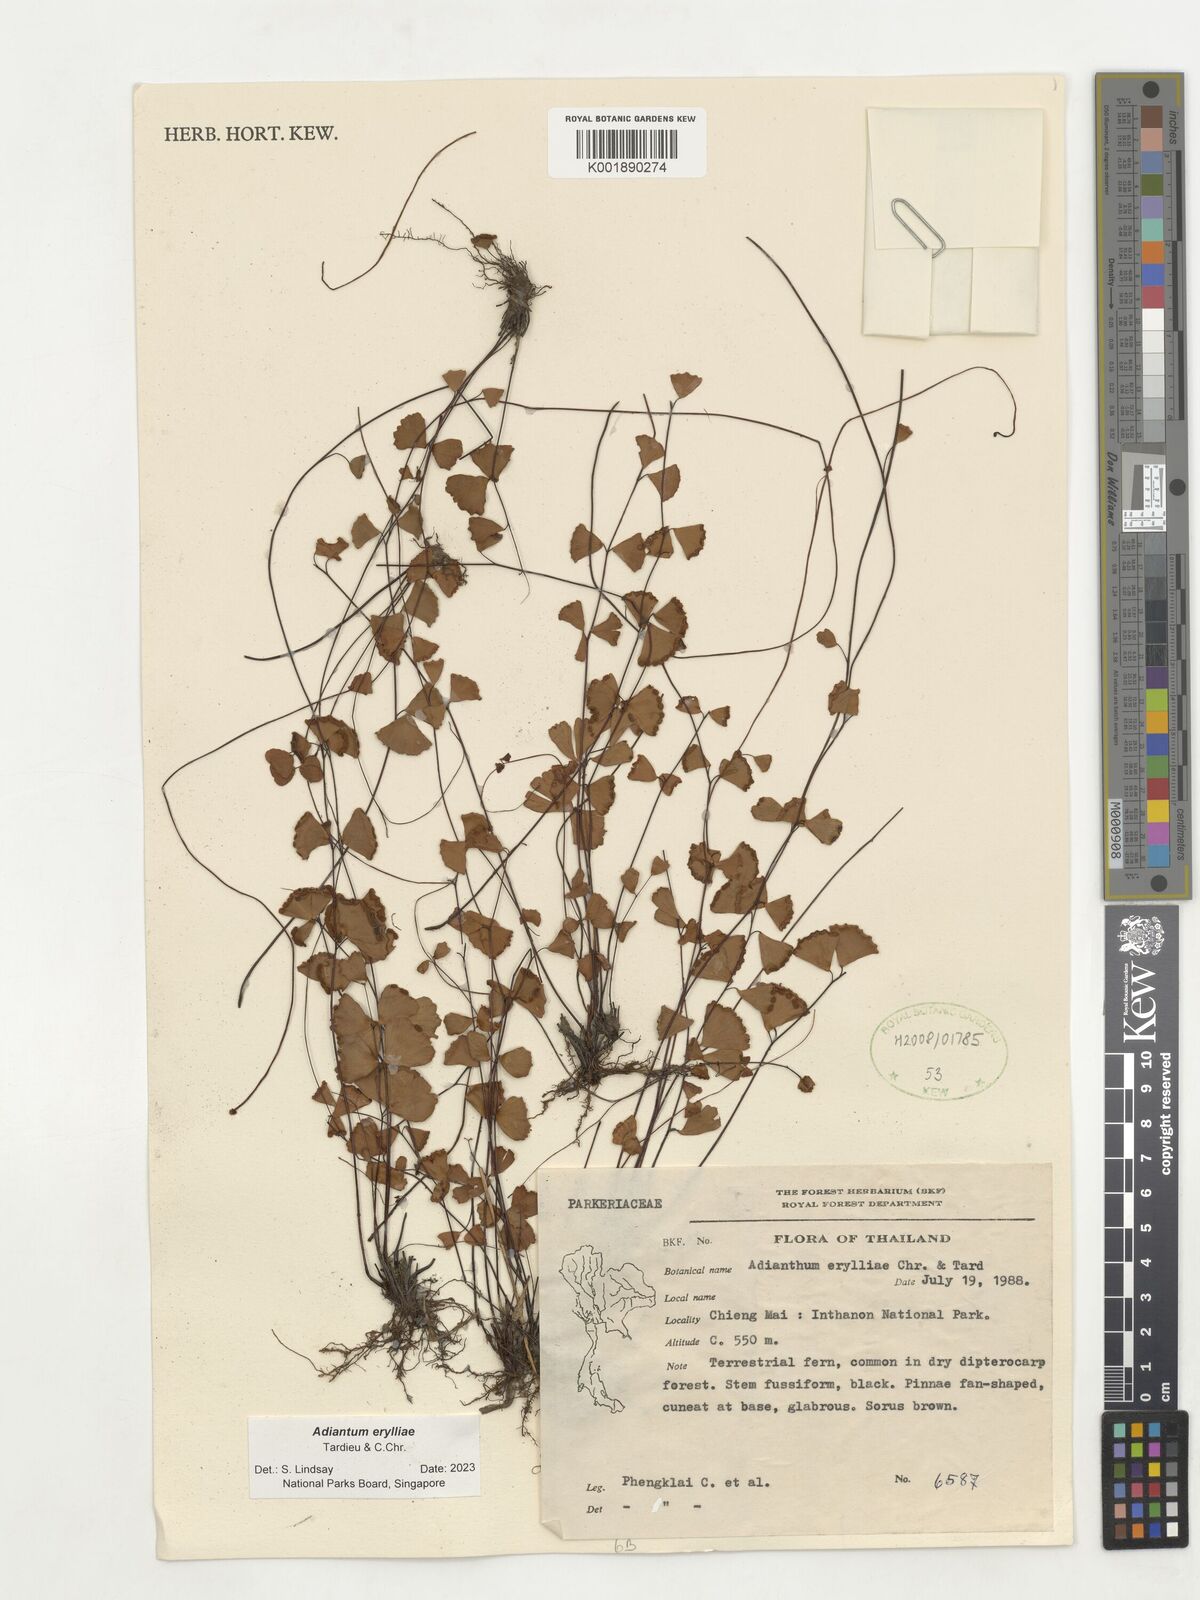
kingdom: Plantae
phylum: Tracheophyta
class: Polypodiopsida
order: Polypodiales
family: Pteridaceae
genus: Adiantum
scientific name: Adiantum erylliae
